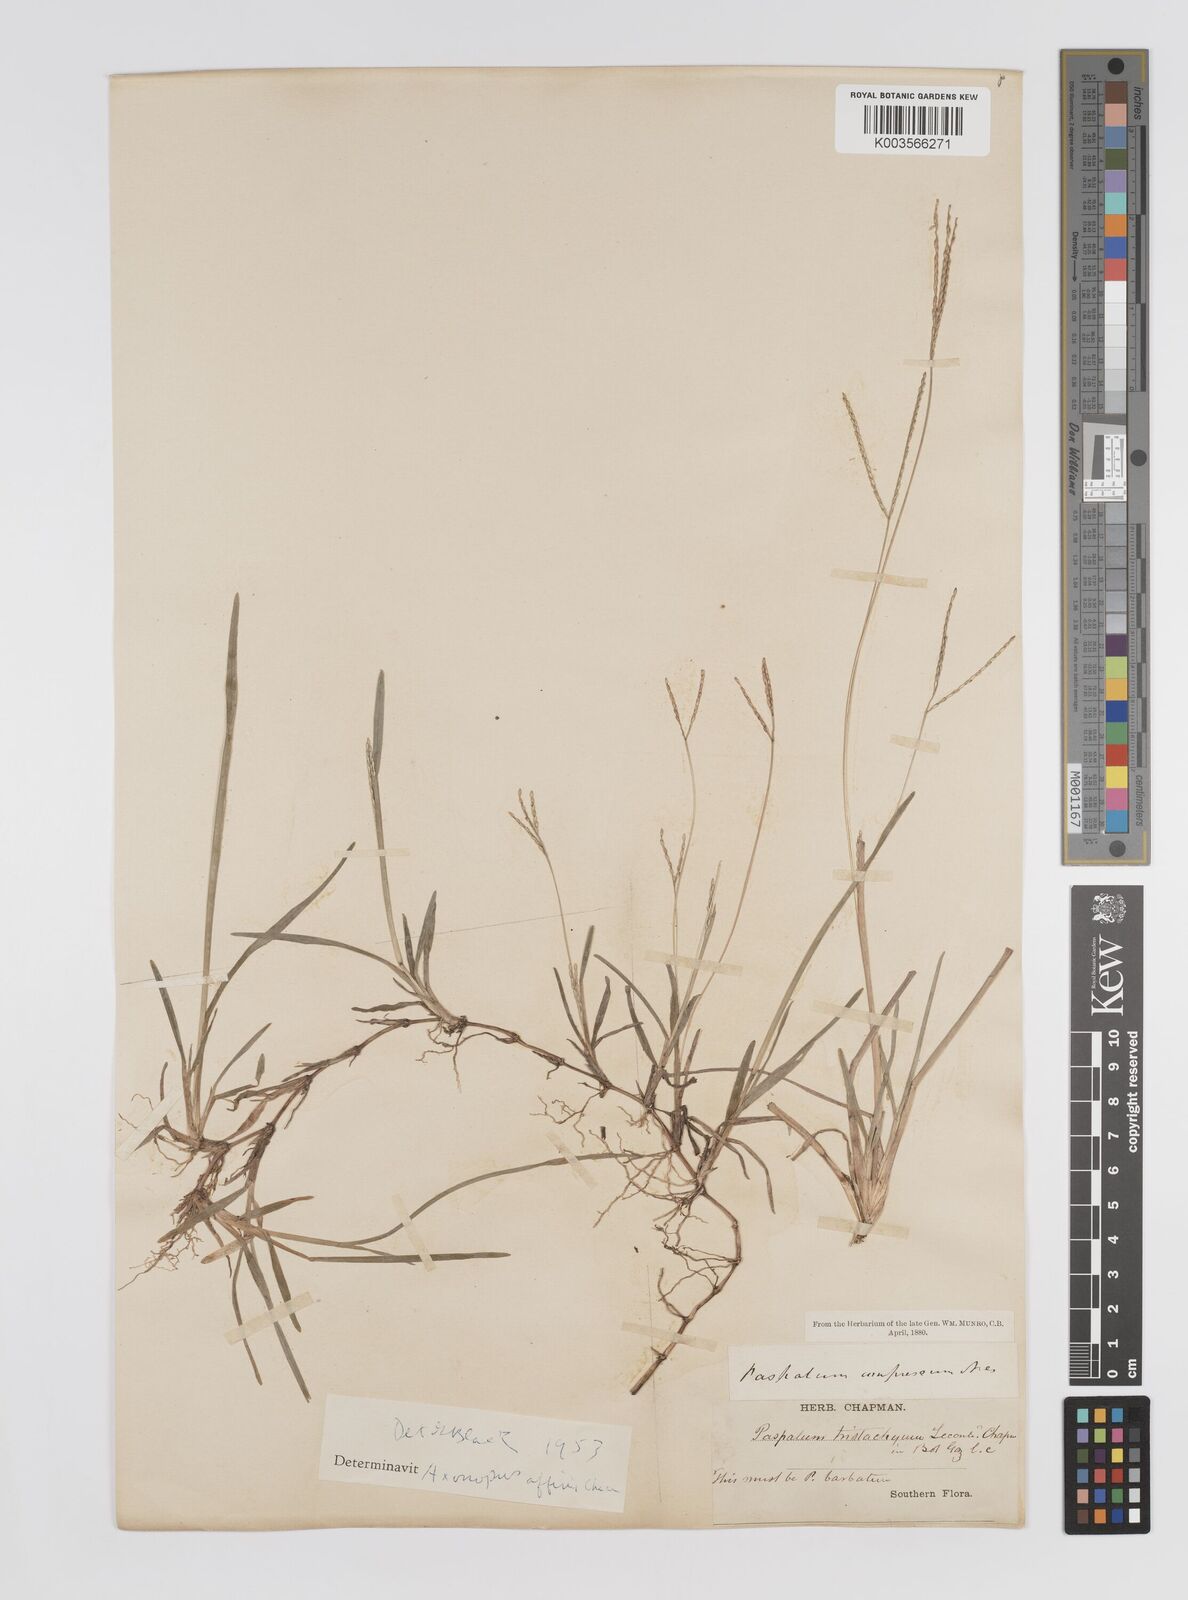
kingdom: Plantae
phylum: Tracheophyta
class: Liliopsida
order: Poales
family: Poaceae
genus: Axonopus
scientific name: Axonopus fissifolius
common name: Common carpetgrass
